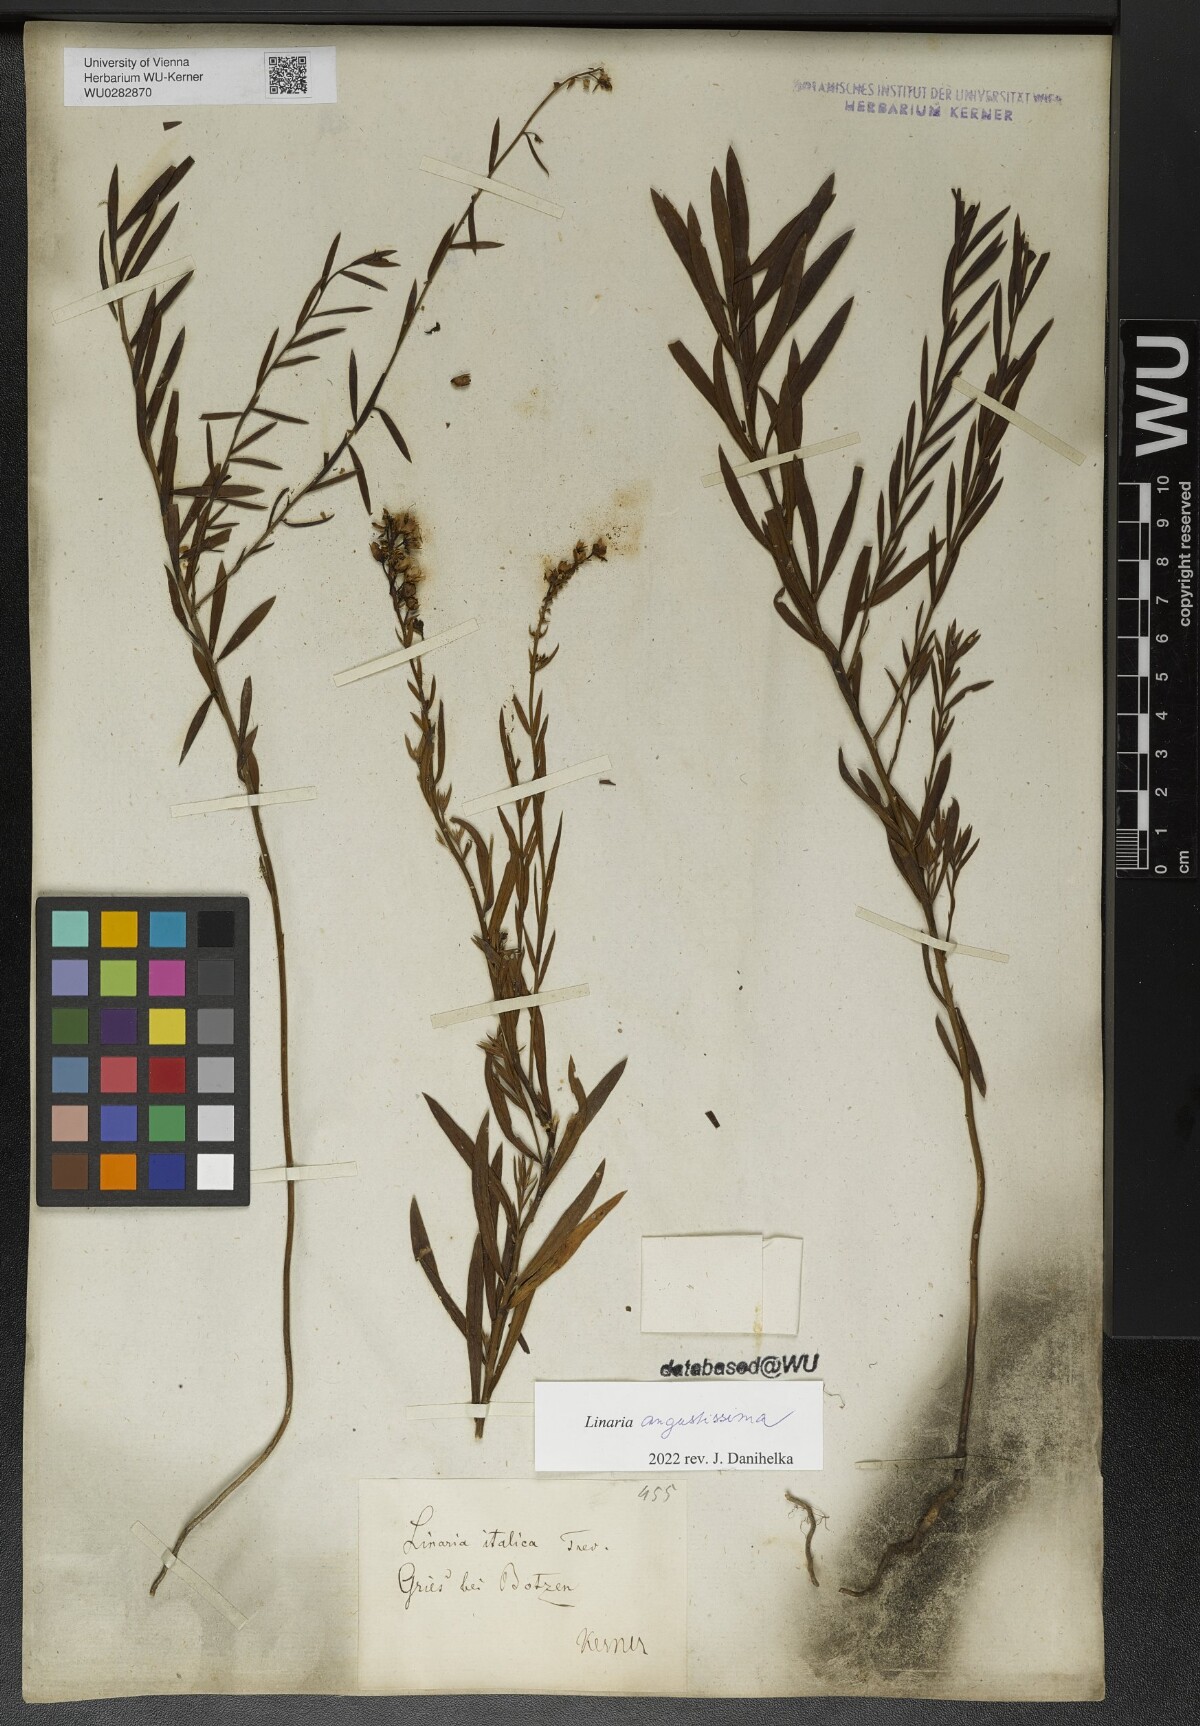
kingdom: Plantae
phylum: Tracheophyta
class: Magnoliopsida
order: Lamiales
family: Plantaginaceae
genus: Linaria
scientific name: Linaria angustissima
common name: Italian toadflax
